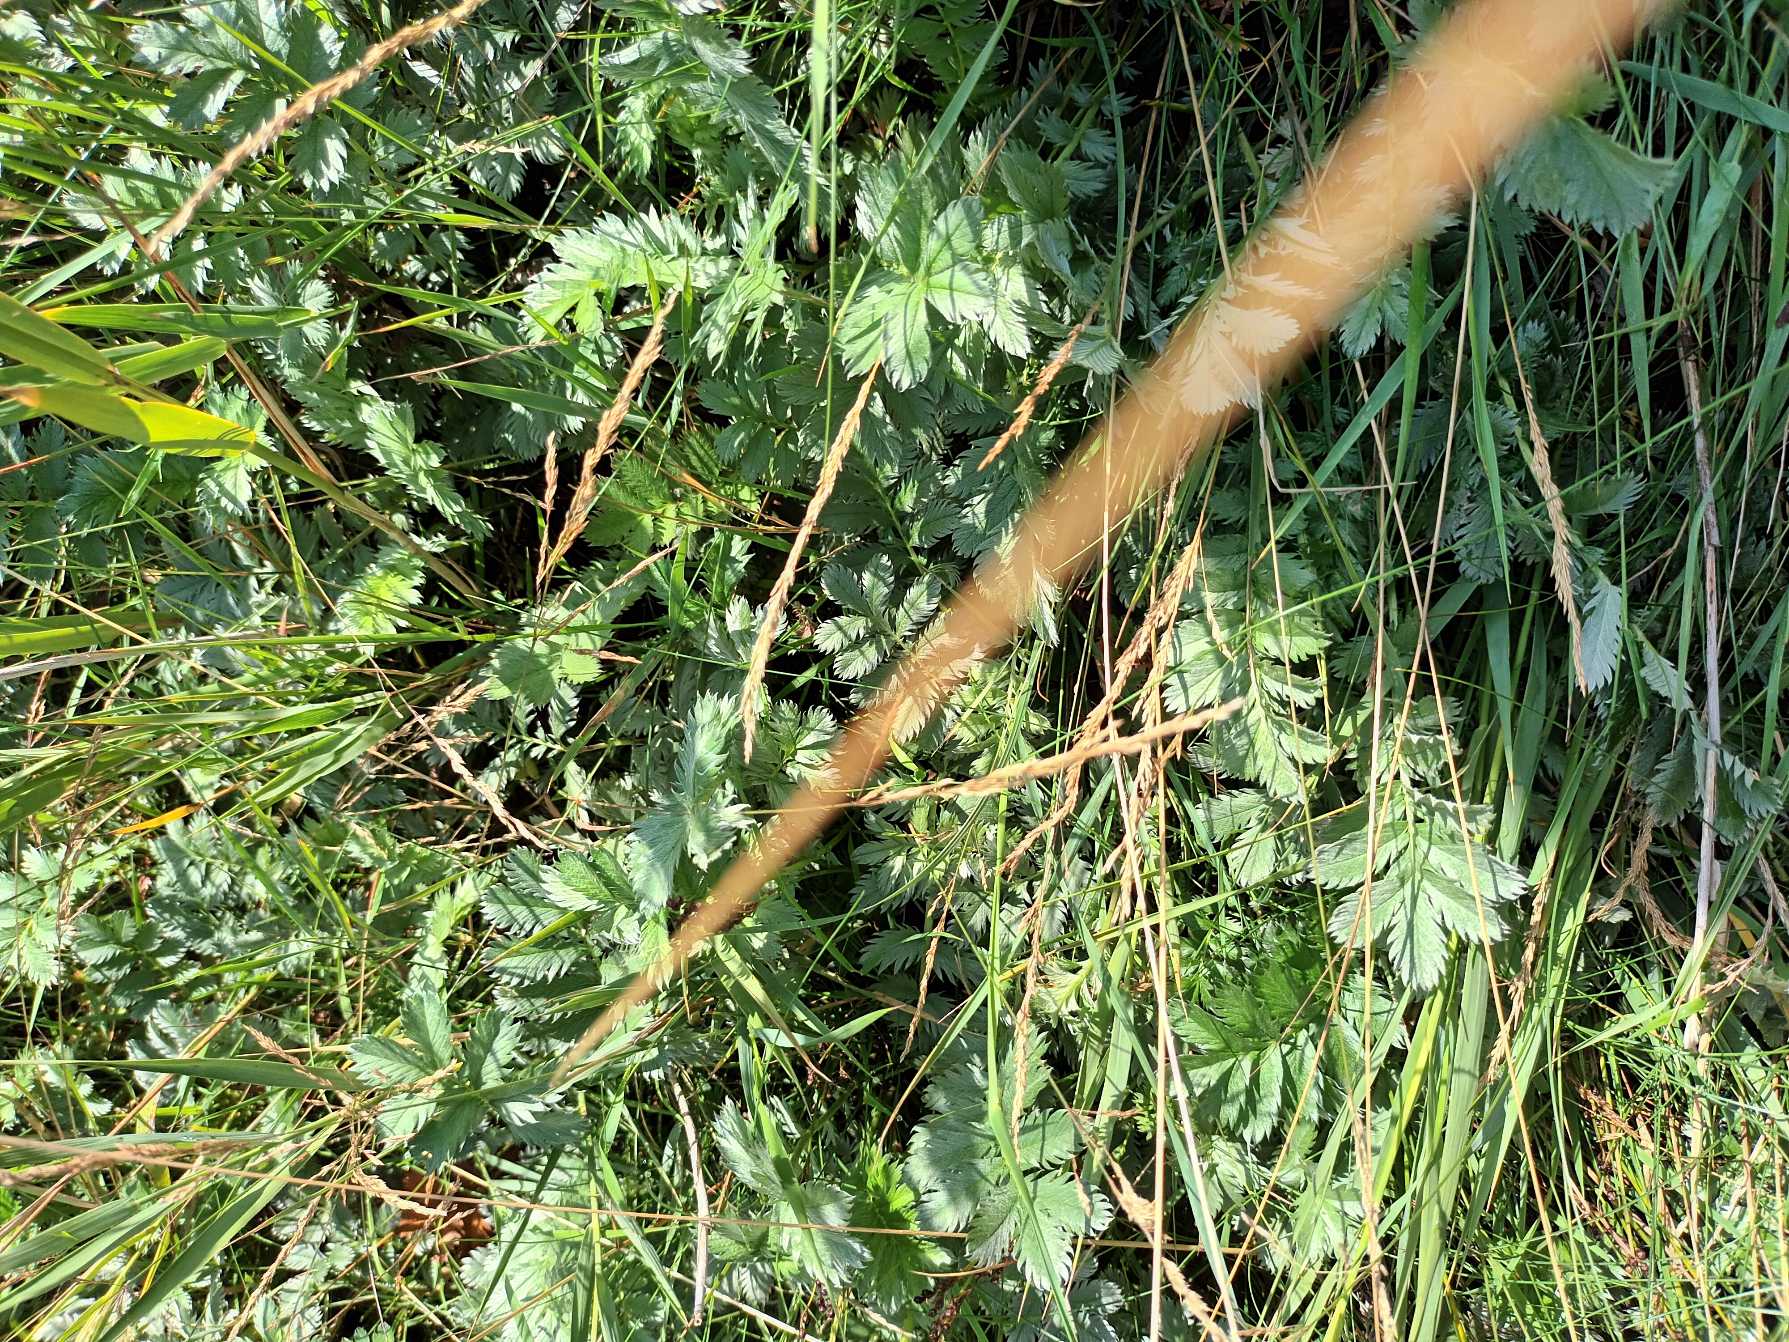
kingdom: Plantae
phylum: Tracheophyta
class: Magnoliopsida
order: Rosales
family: Rosaceae
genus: Argentina
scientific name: Argentina anserina
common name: Gåsepotentil
